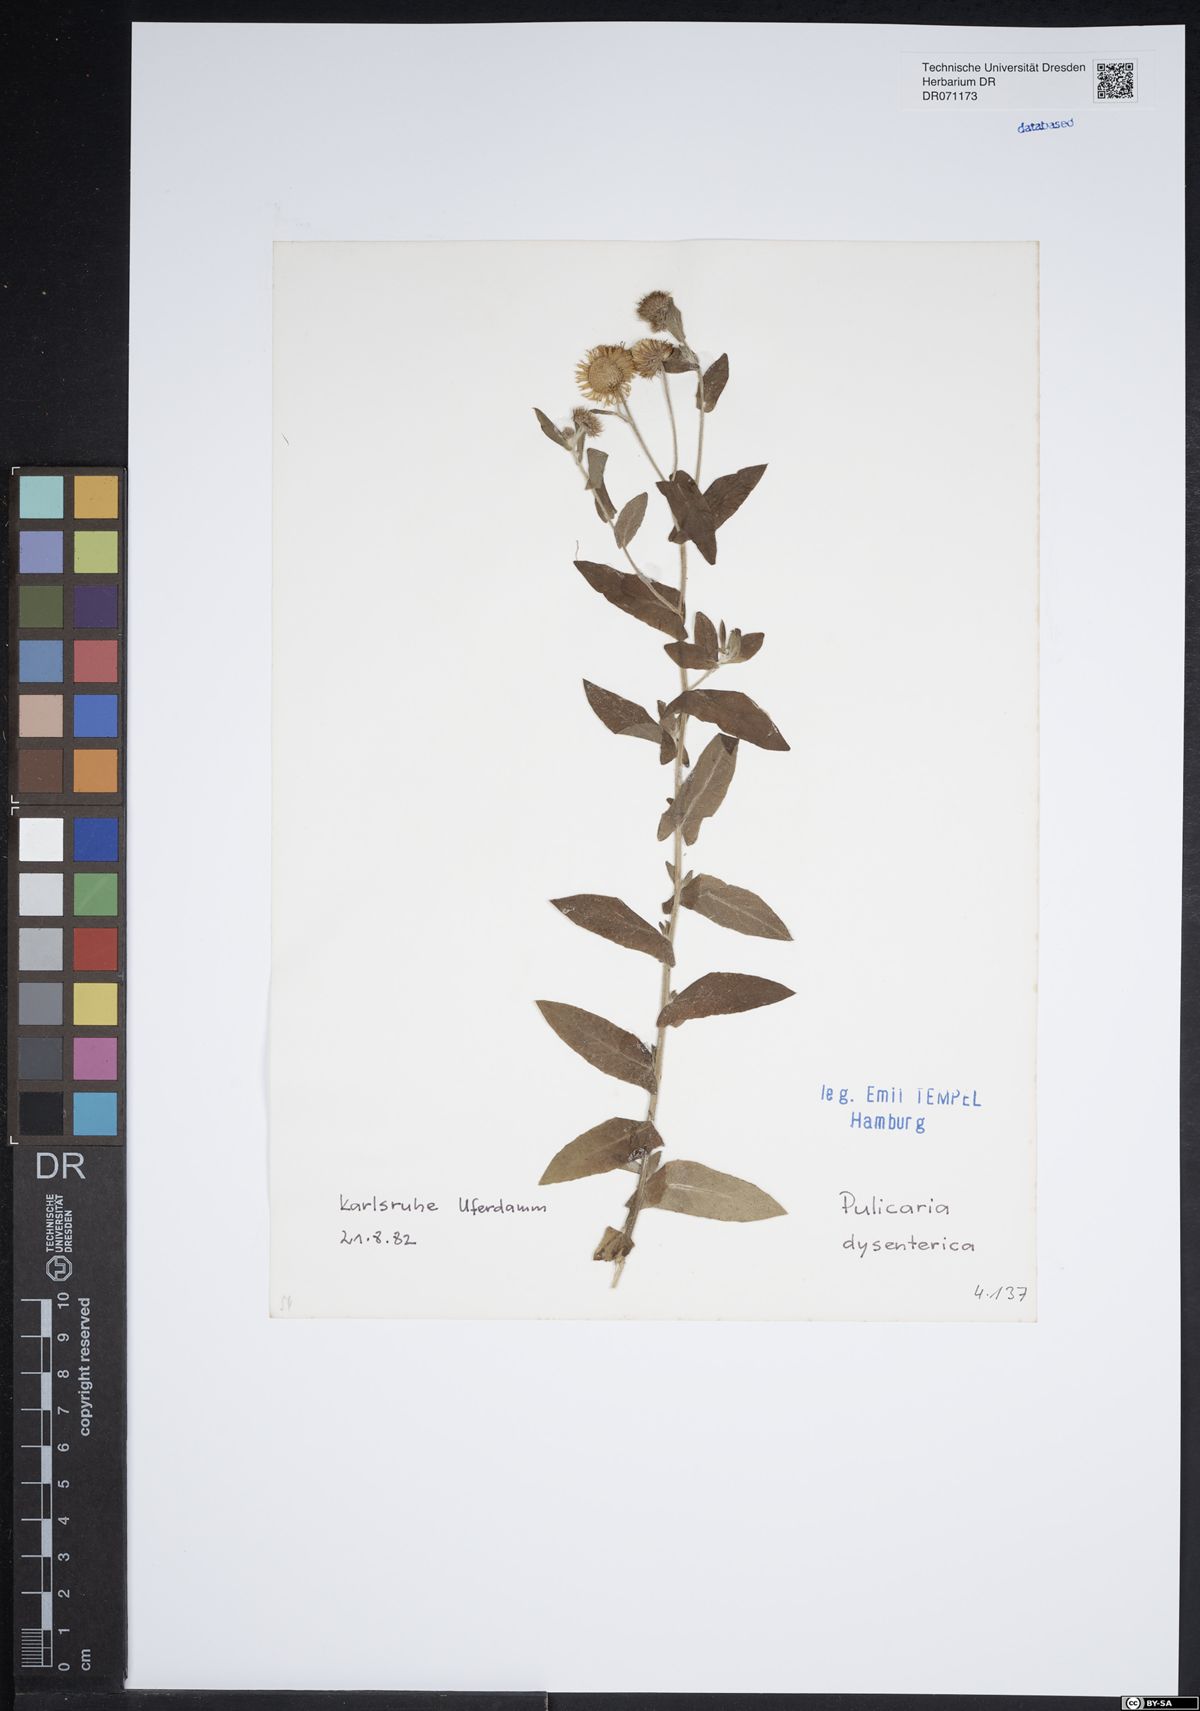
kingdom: Plantae
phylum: Tracheophyta
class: Magnoliopsida
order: Asterales
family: Asteraceae
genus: Pulicaria
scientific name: Pulicaria dysenterica
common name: Common fleabane
